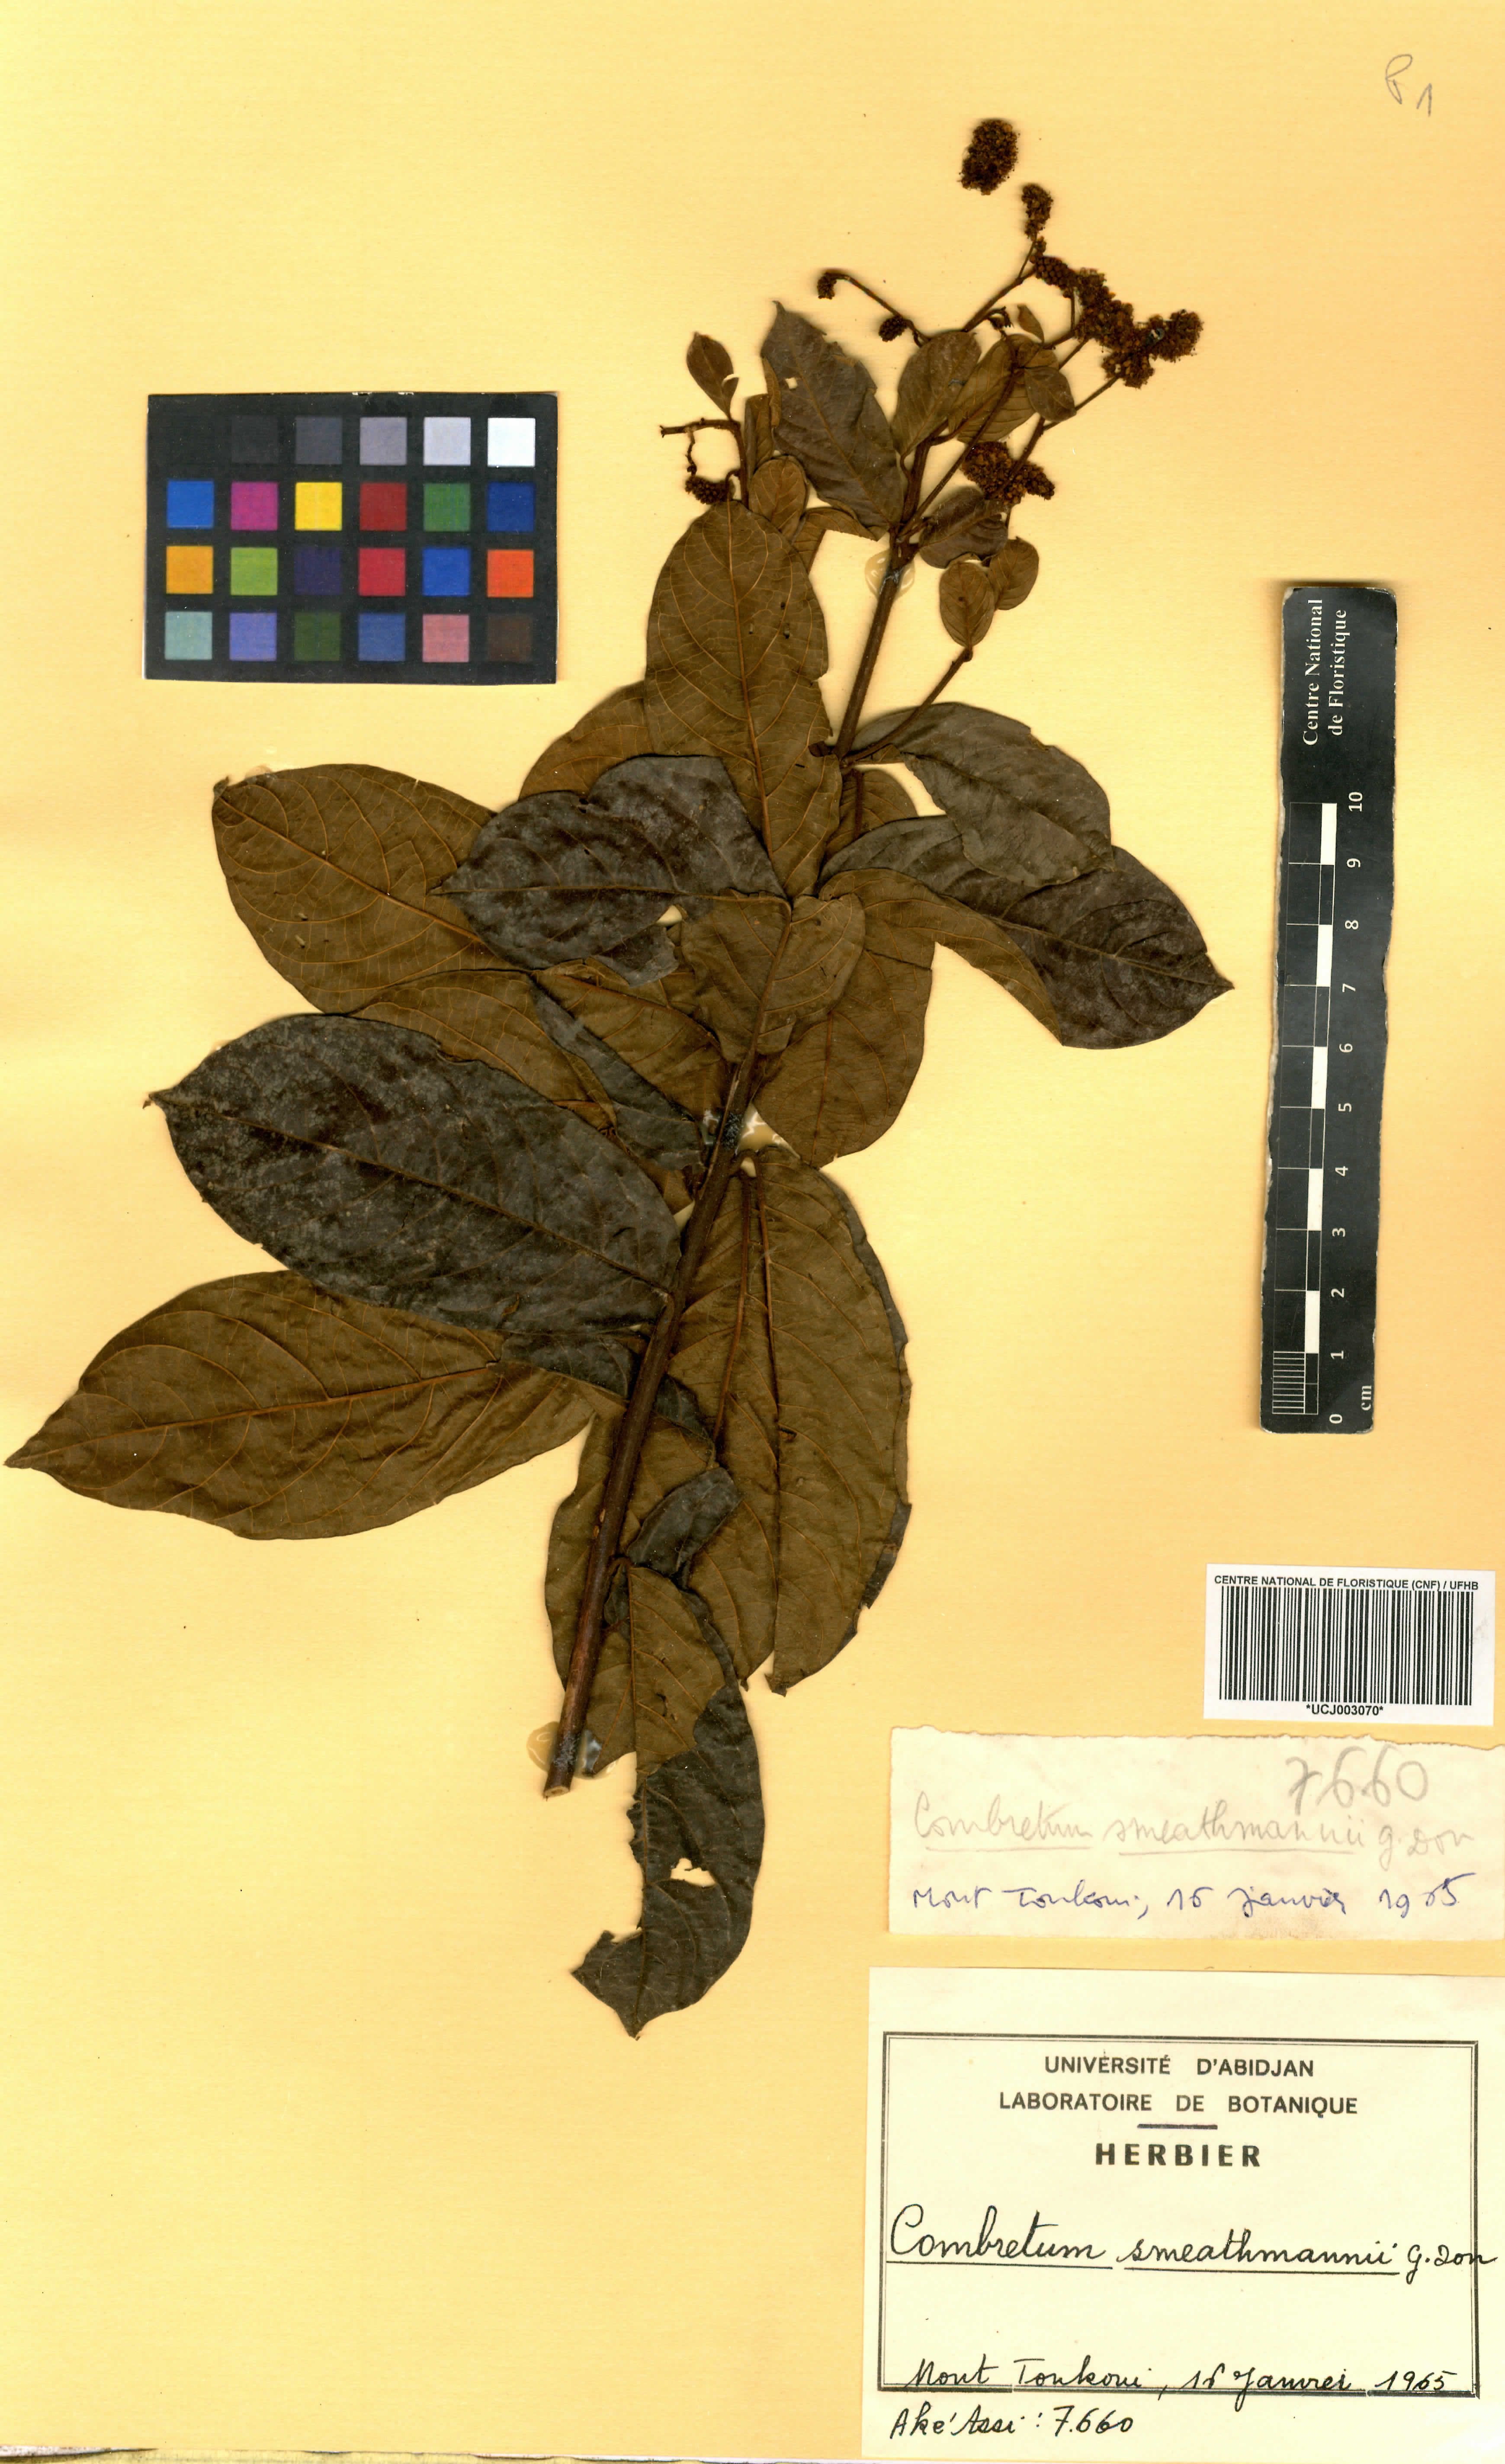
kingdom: Plantae
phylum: Tracheophyta
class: Magnoliopsida
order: Myrtales
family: Combretaceae
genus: Combretum
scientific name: Combretum mucronatum
